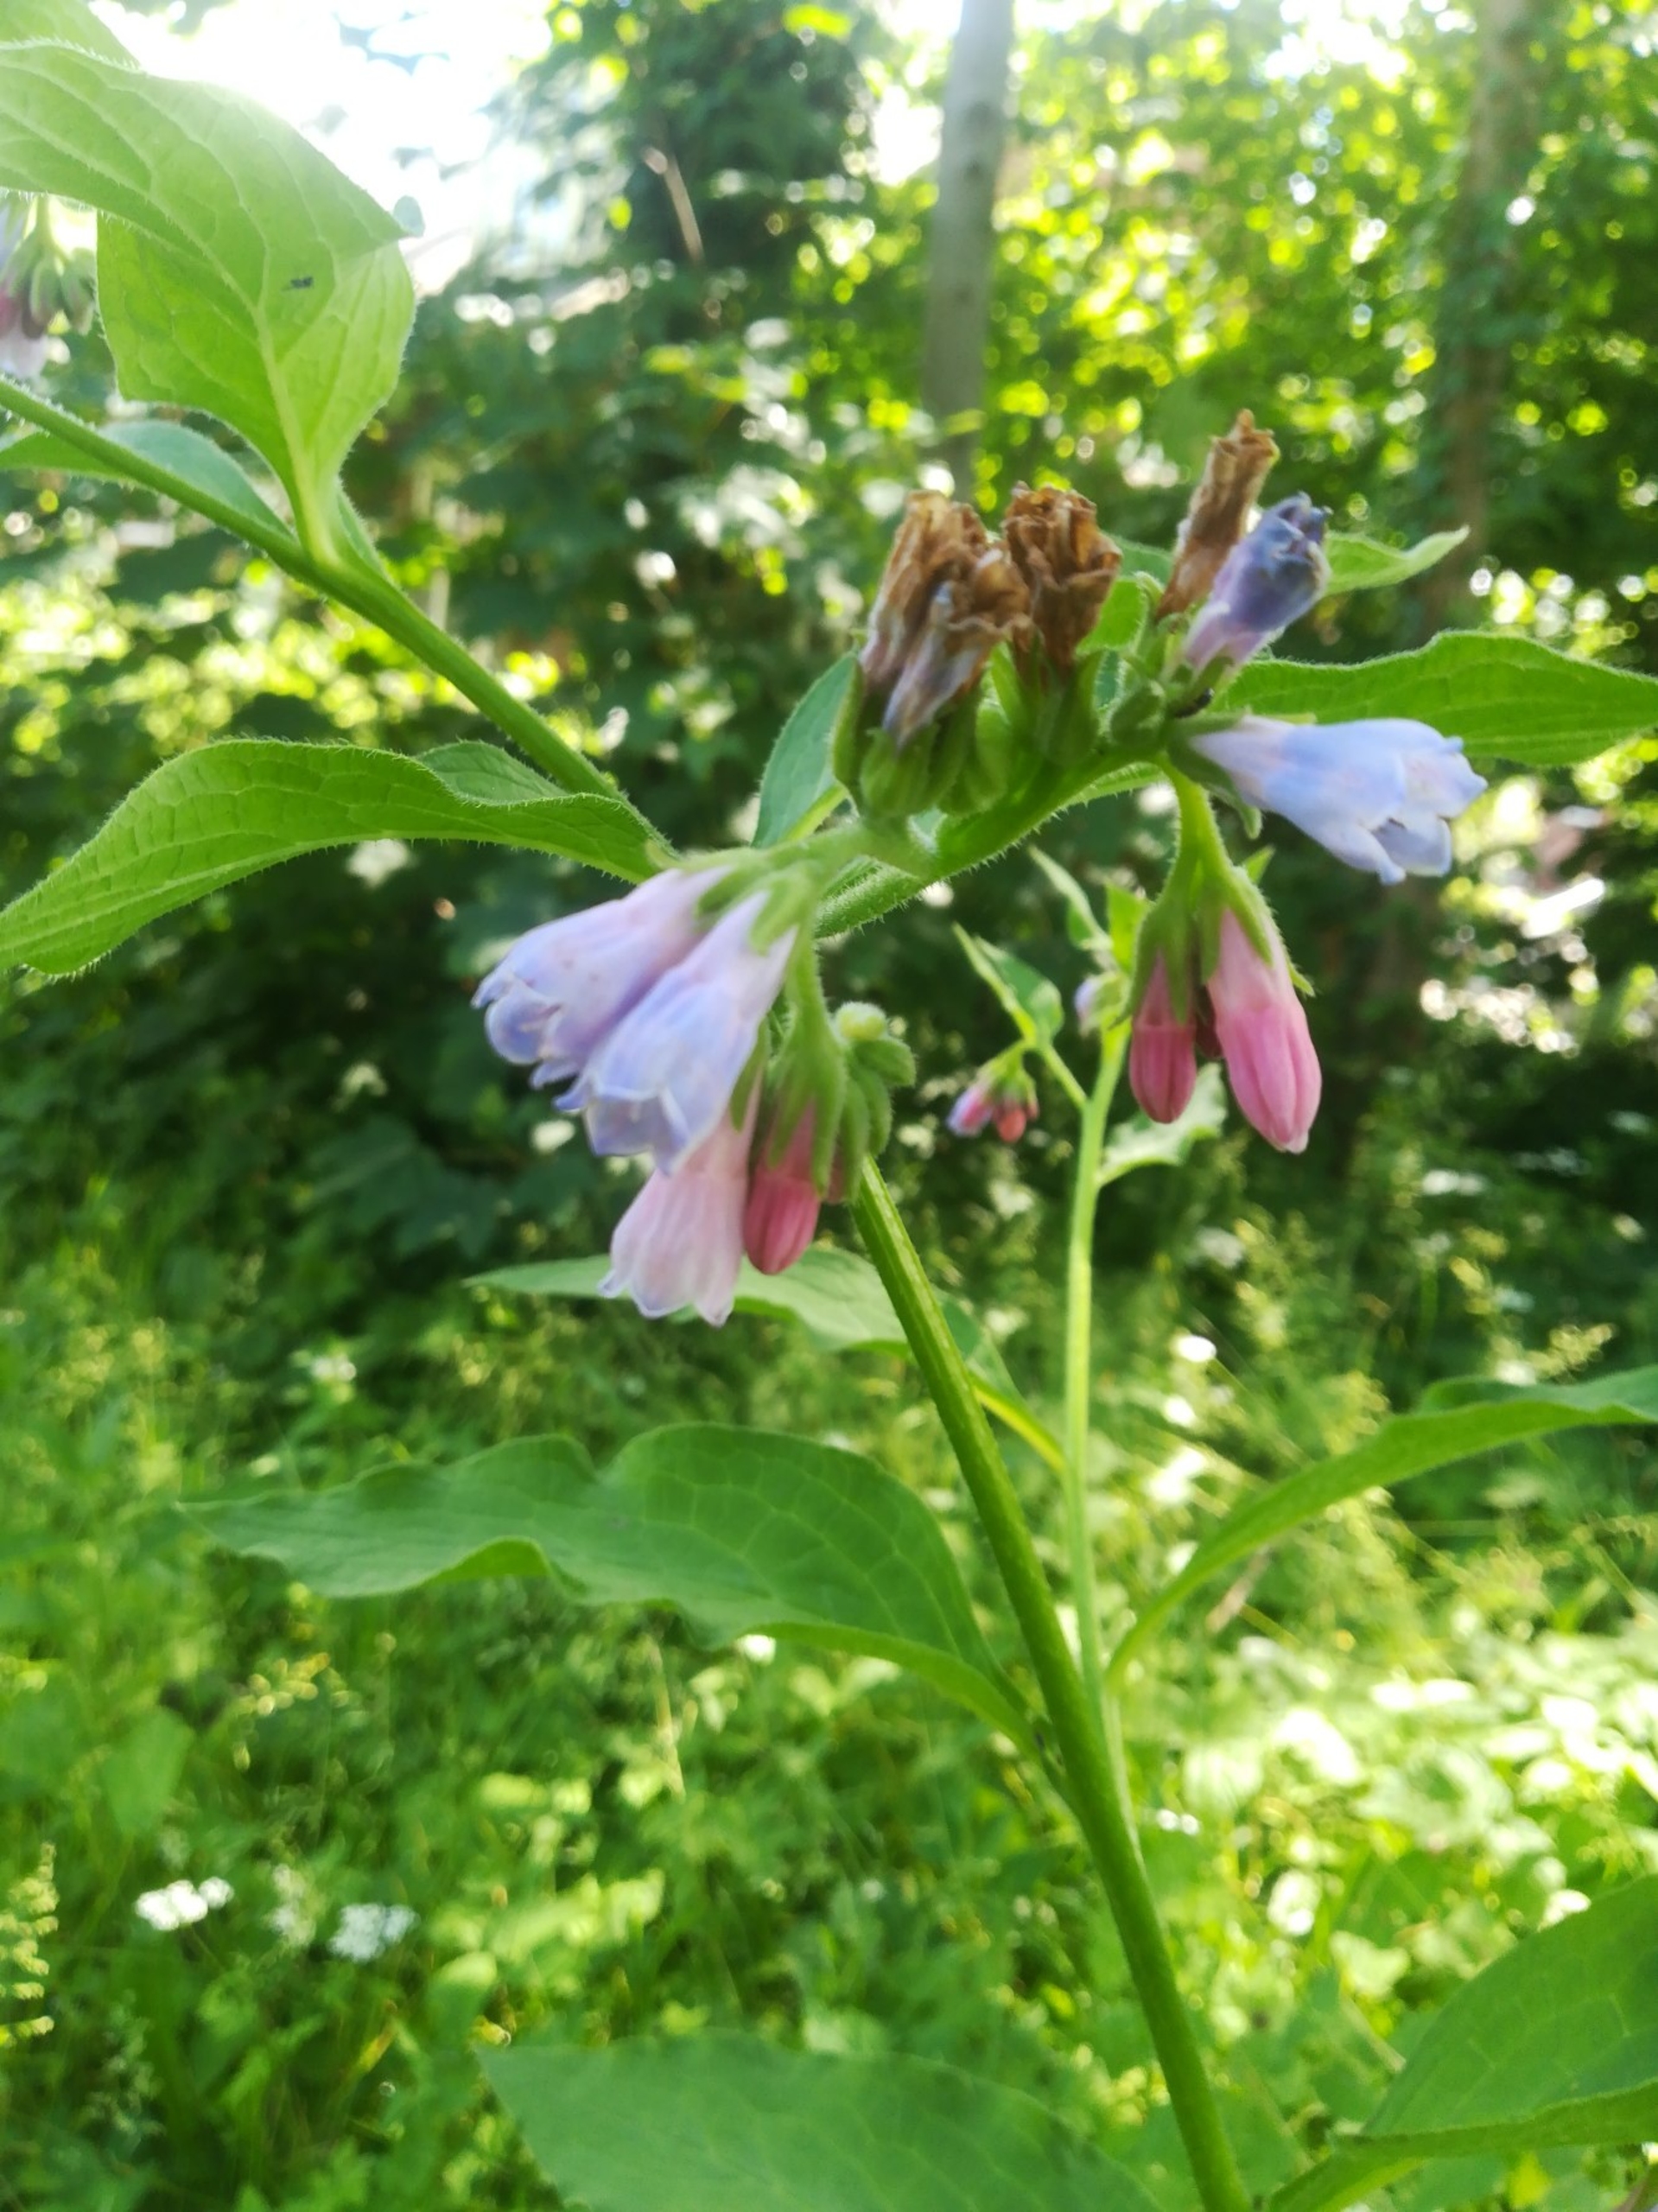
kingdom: Plantae
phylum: Tracheophyta
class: Magnoliopsida
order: Boraginales
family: Boraginaceae
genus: Symphytum
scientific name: Symphytum uplandicum
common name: Foder-kulsukker
